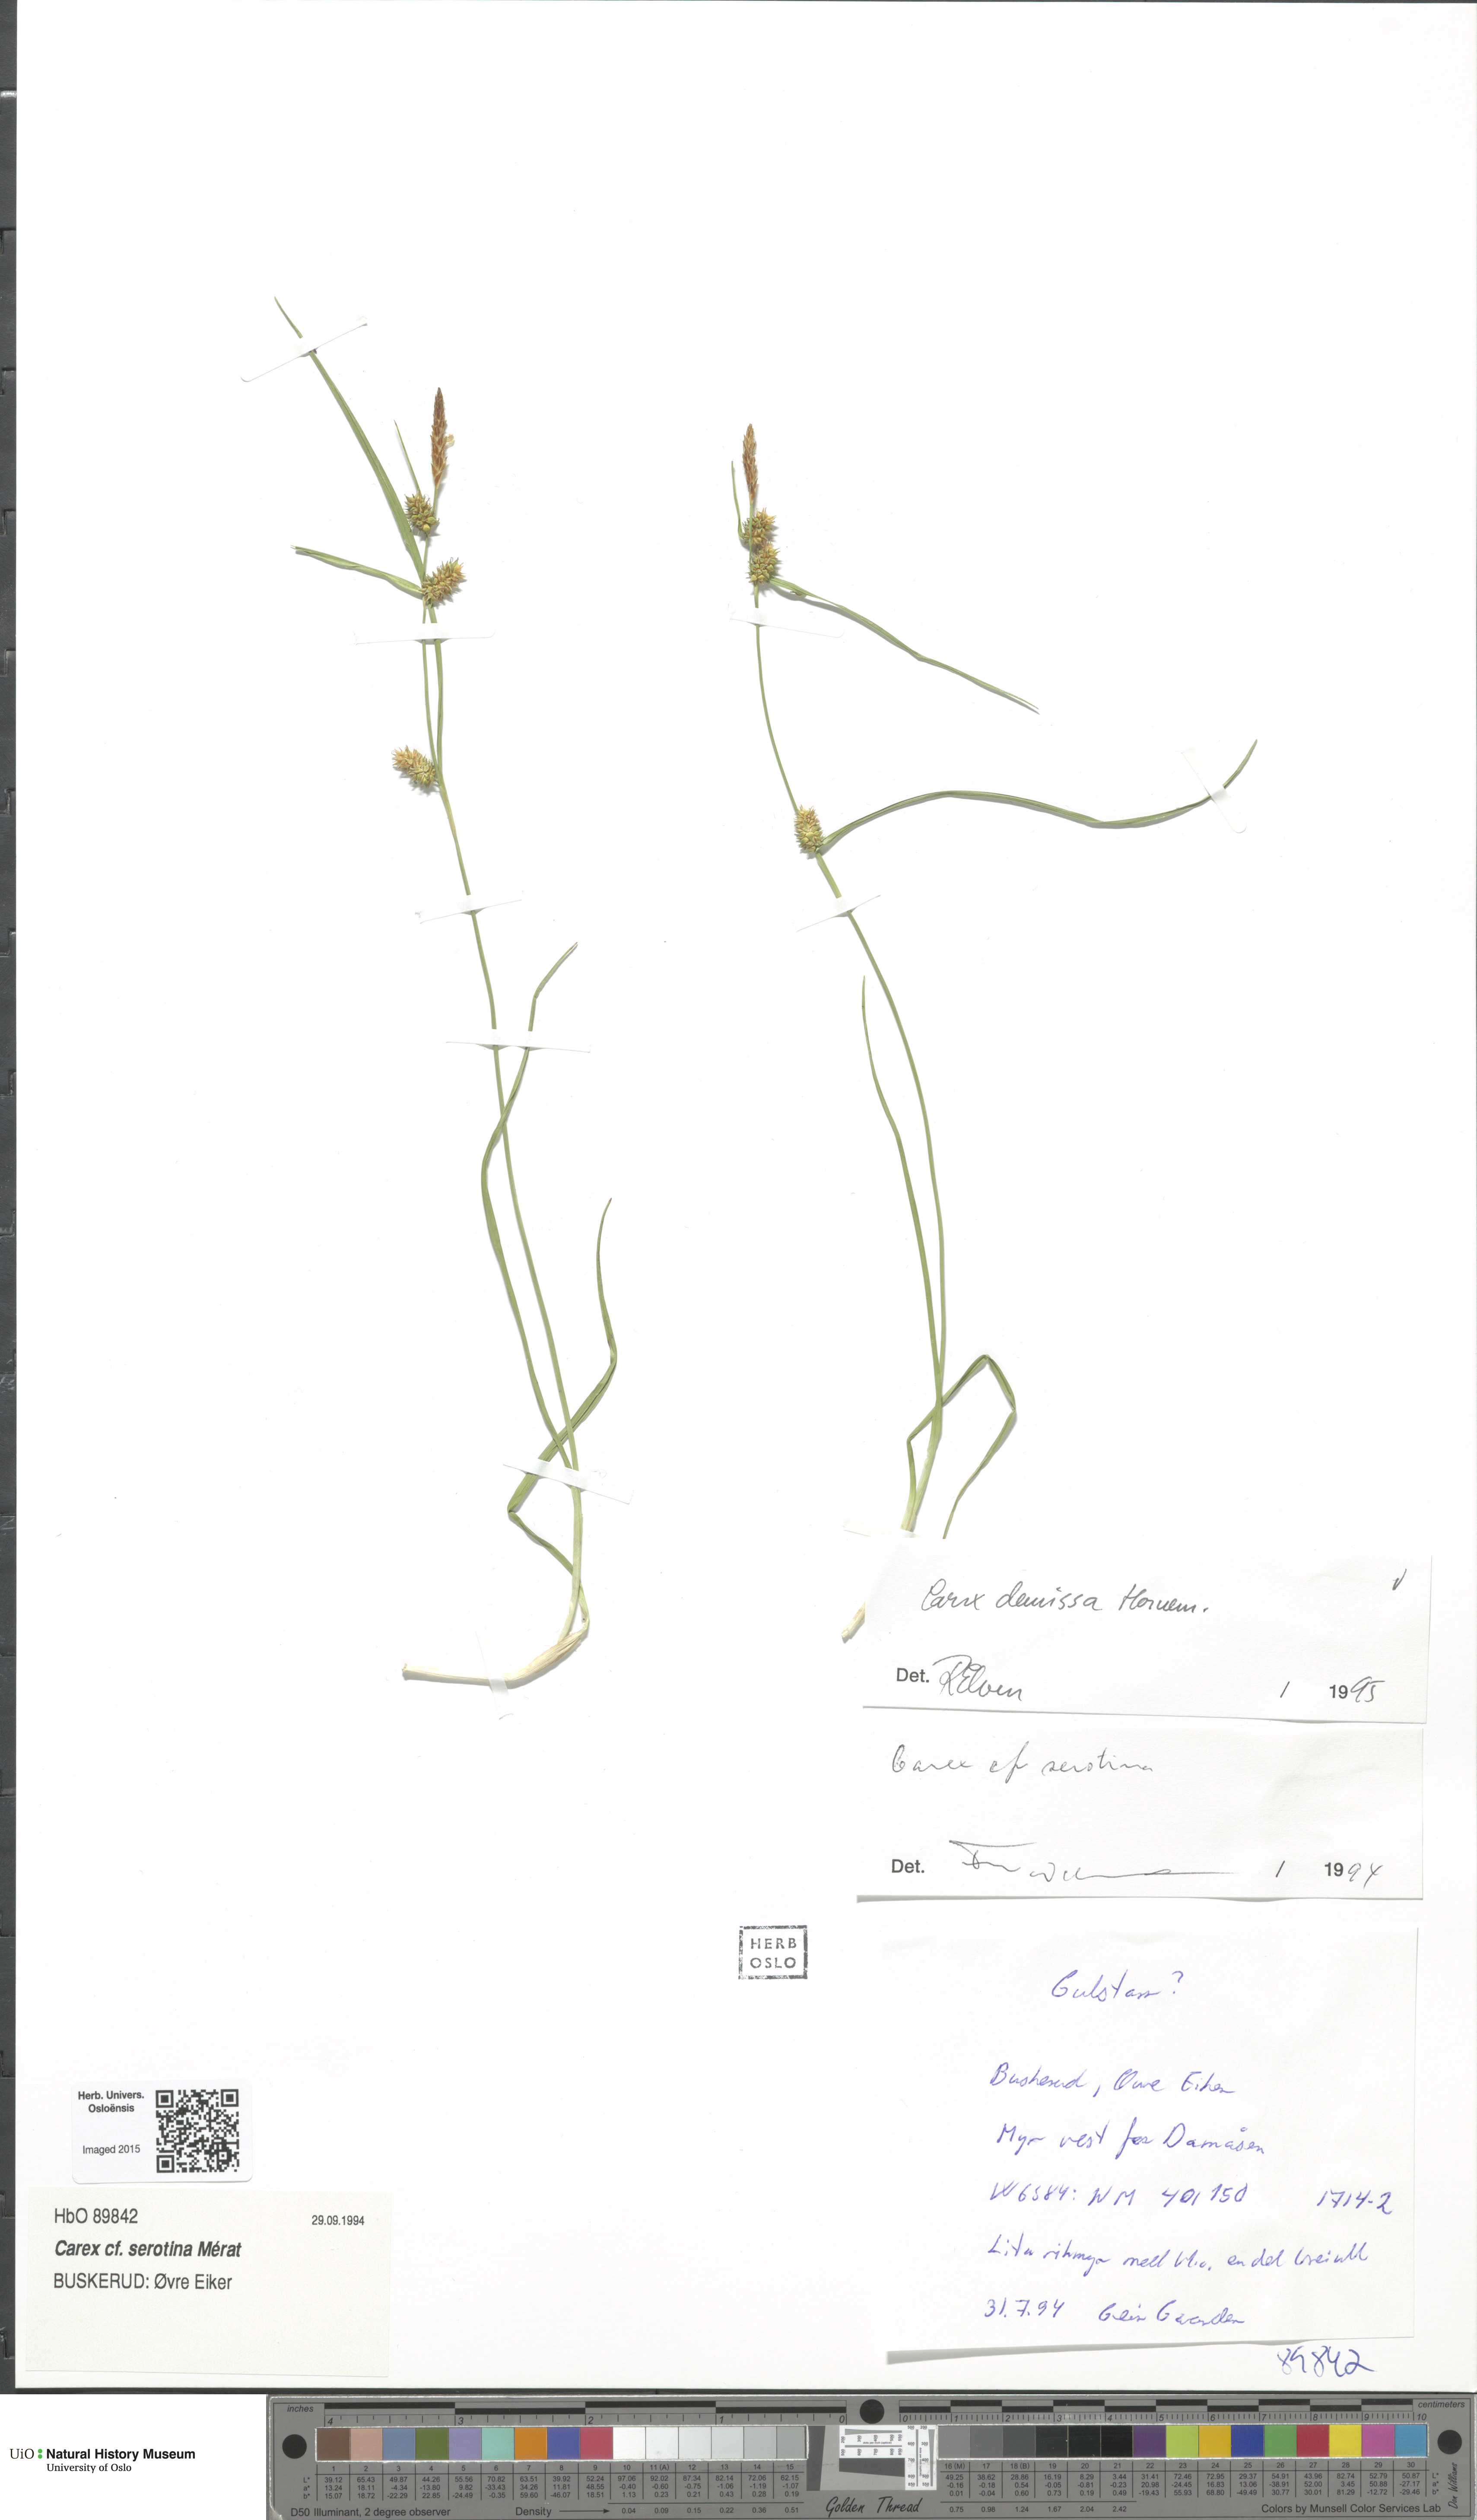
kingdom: Plantae
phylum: Tracheophyta
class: Liliopsida
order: Poales
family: Cyperaceae
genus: Carex
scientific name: Carex demissa
